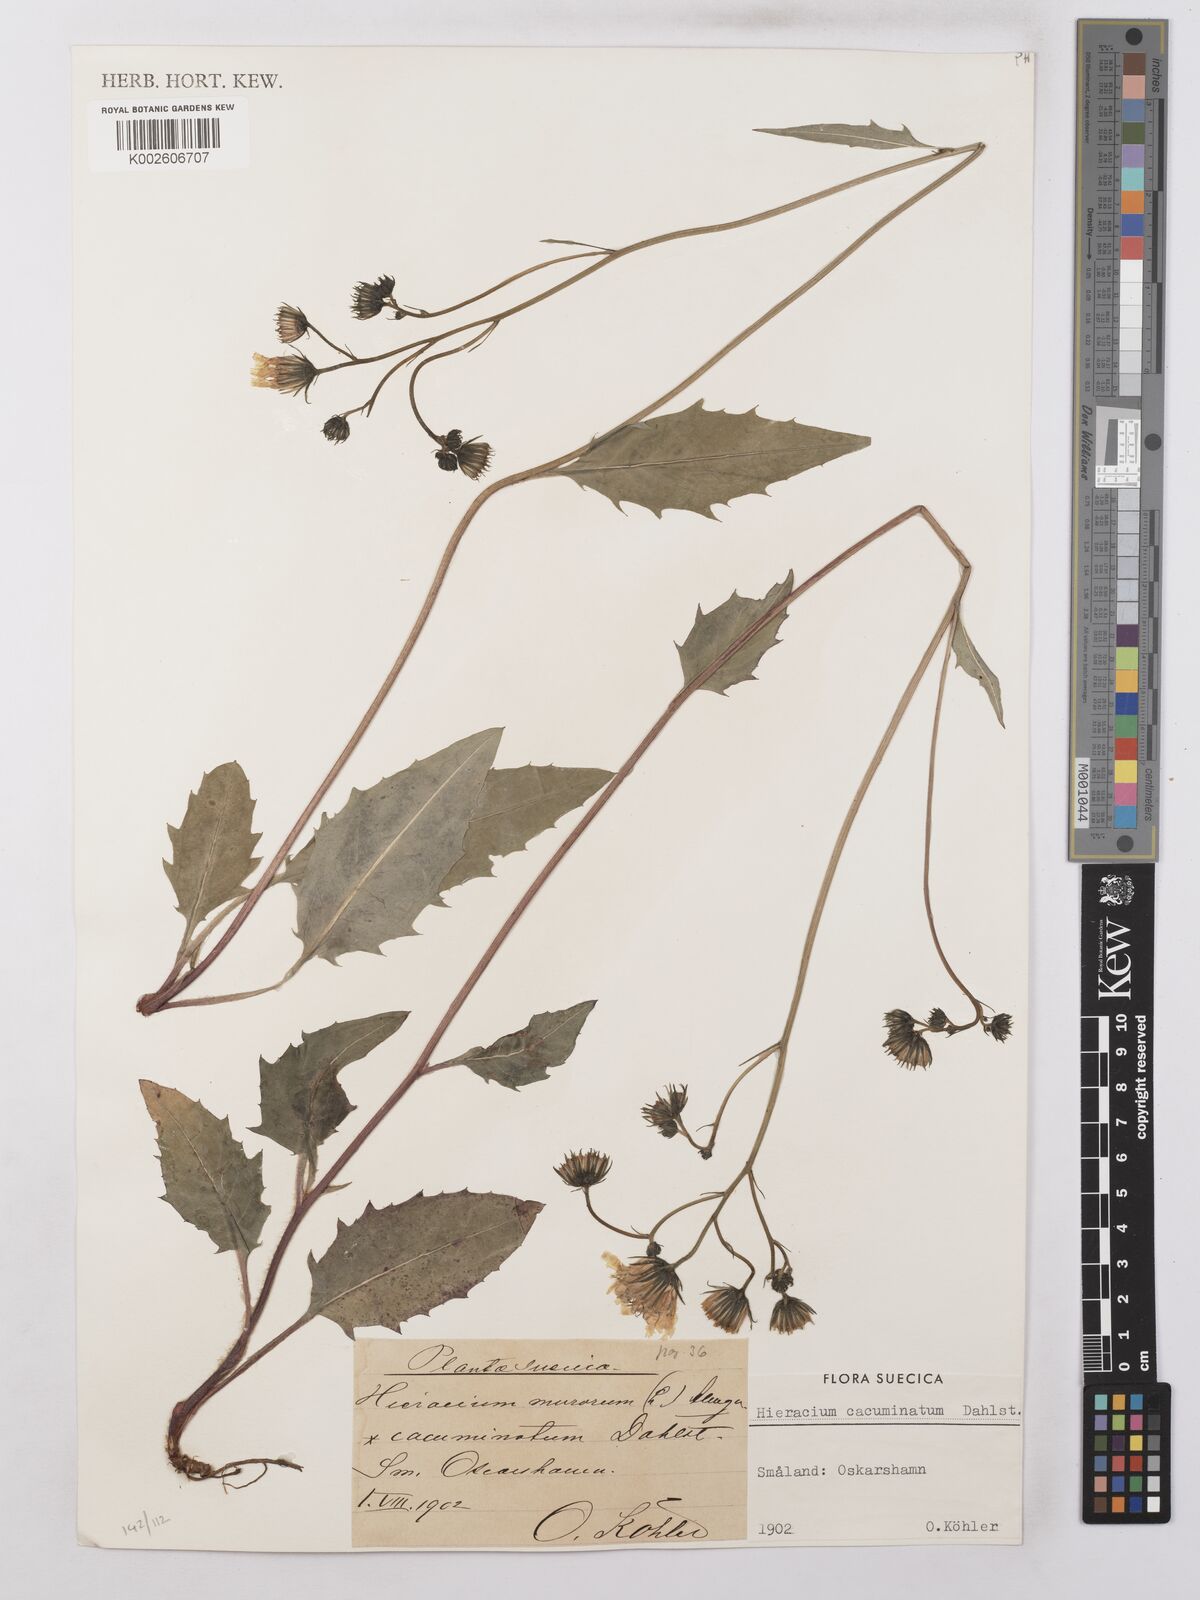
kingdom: Plantae
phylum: Tracheophyta
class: Magnoliopsida
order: Asterales
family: Asteraceae
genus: Hieracium
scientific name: Hieracium lachenalii
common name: Common hawkweed
